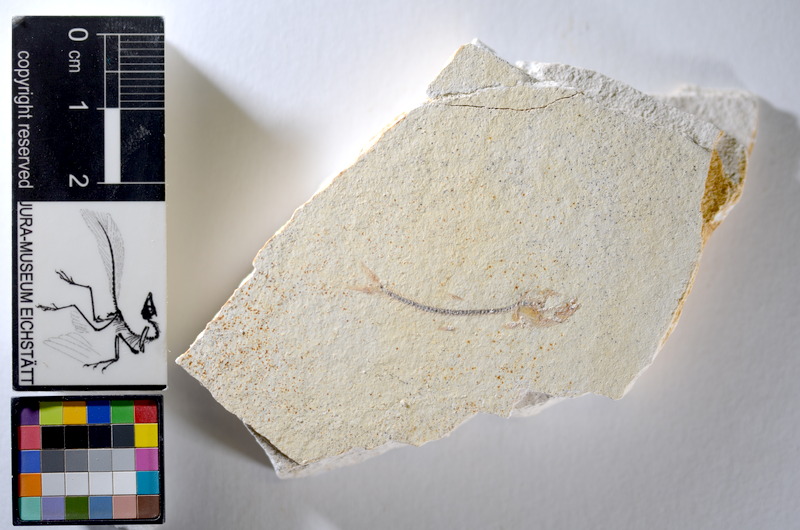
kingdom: Animalia
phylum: Chordata
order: Salmoniformes
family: Orthogonikleithridae
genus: Orthogonikleithrus
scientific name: Orthogonikleithrus hoelli
